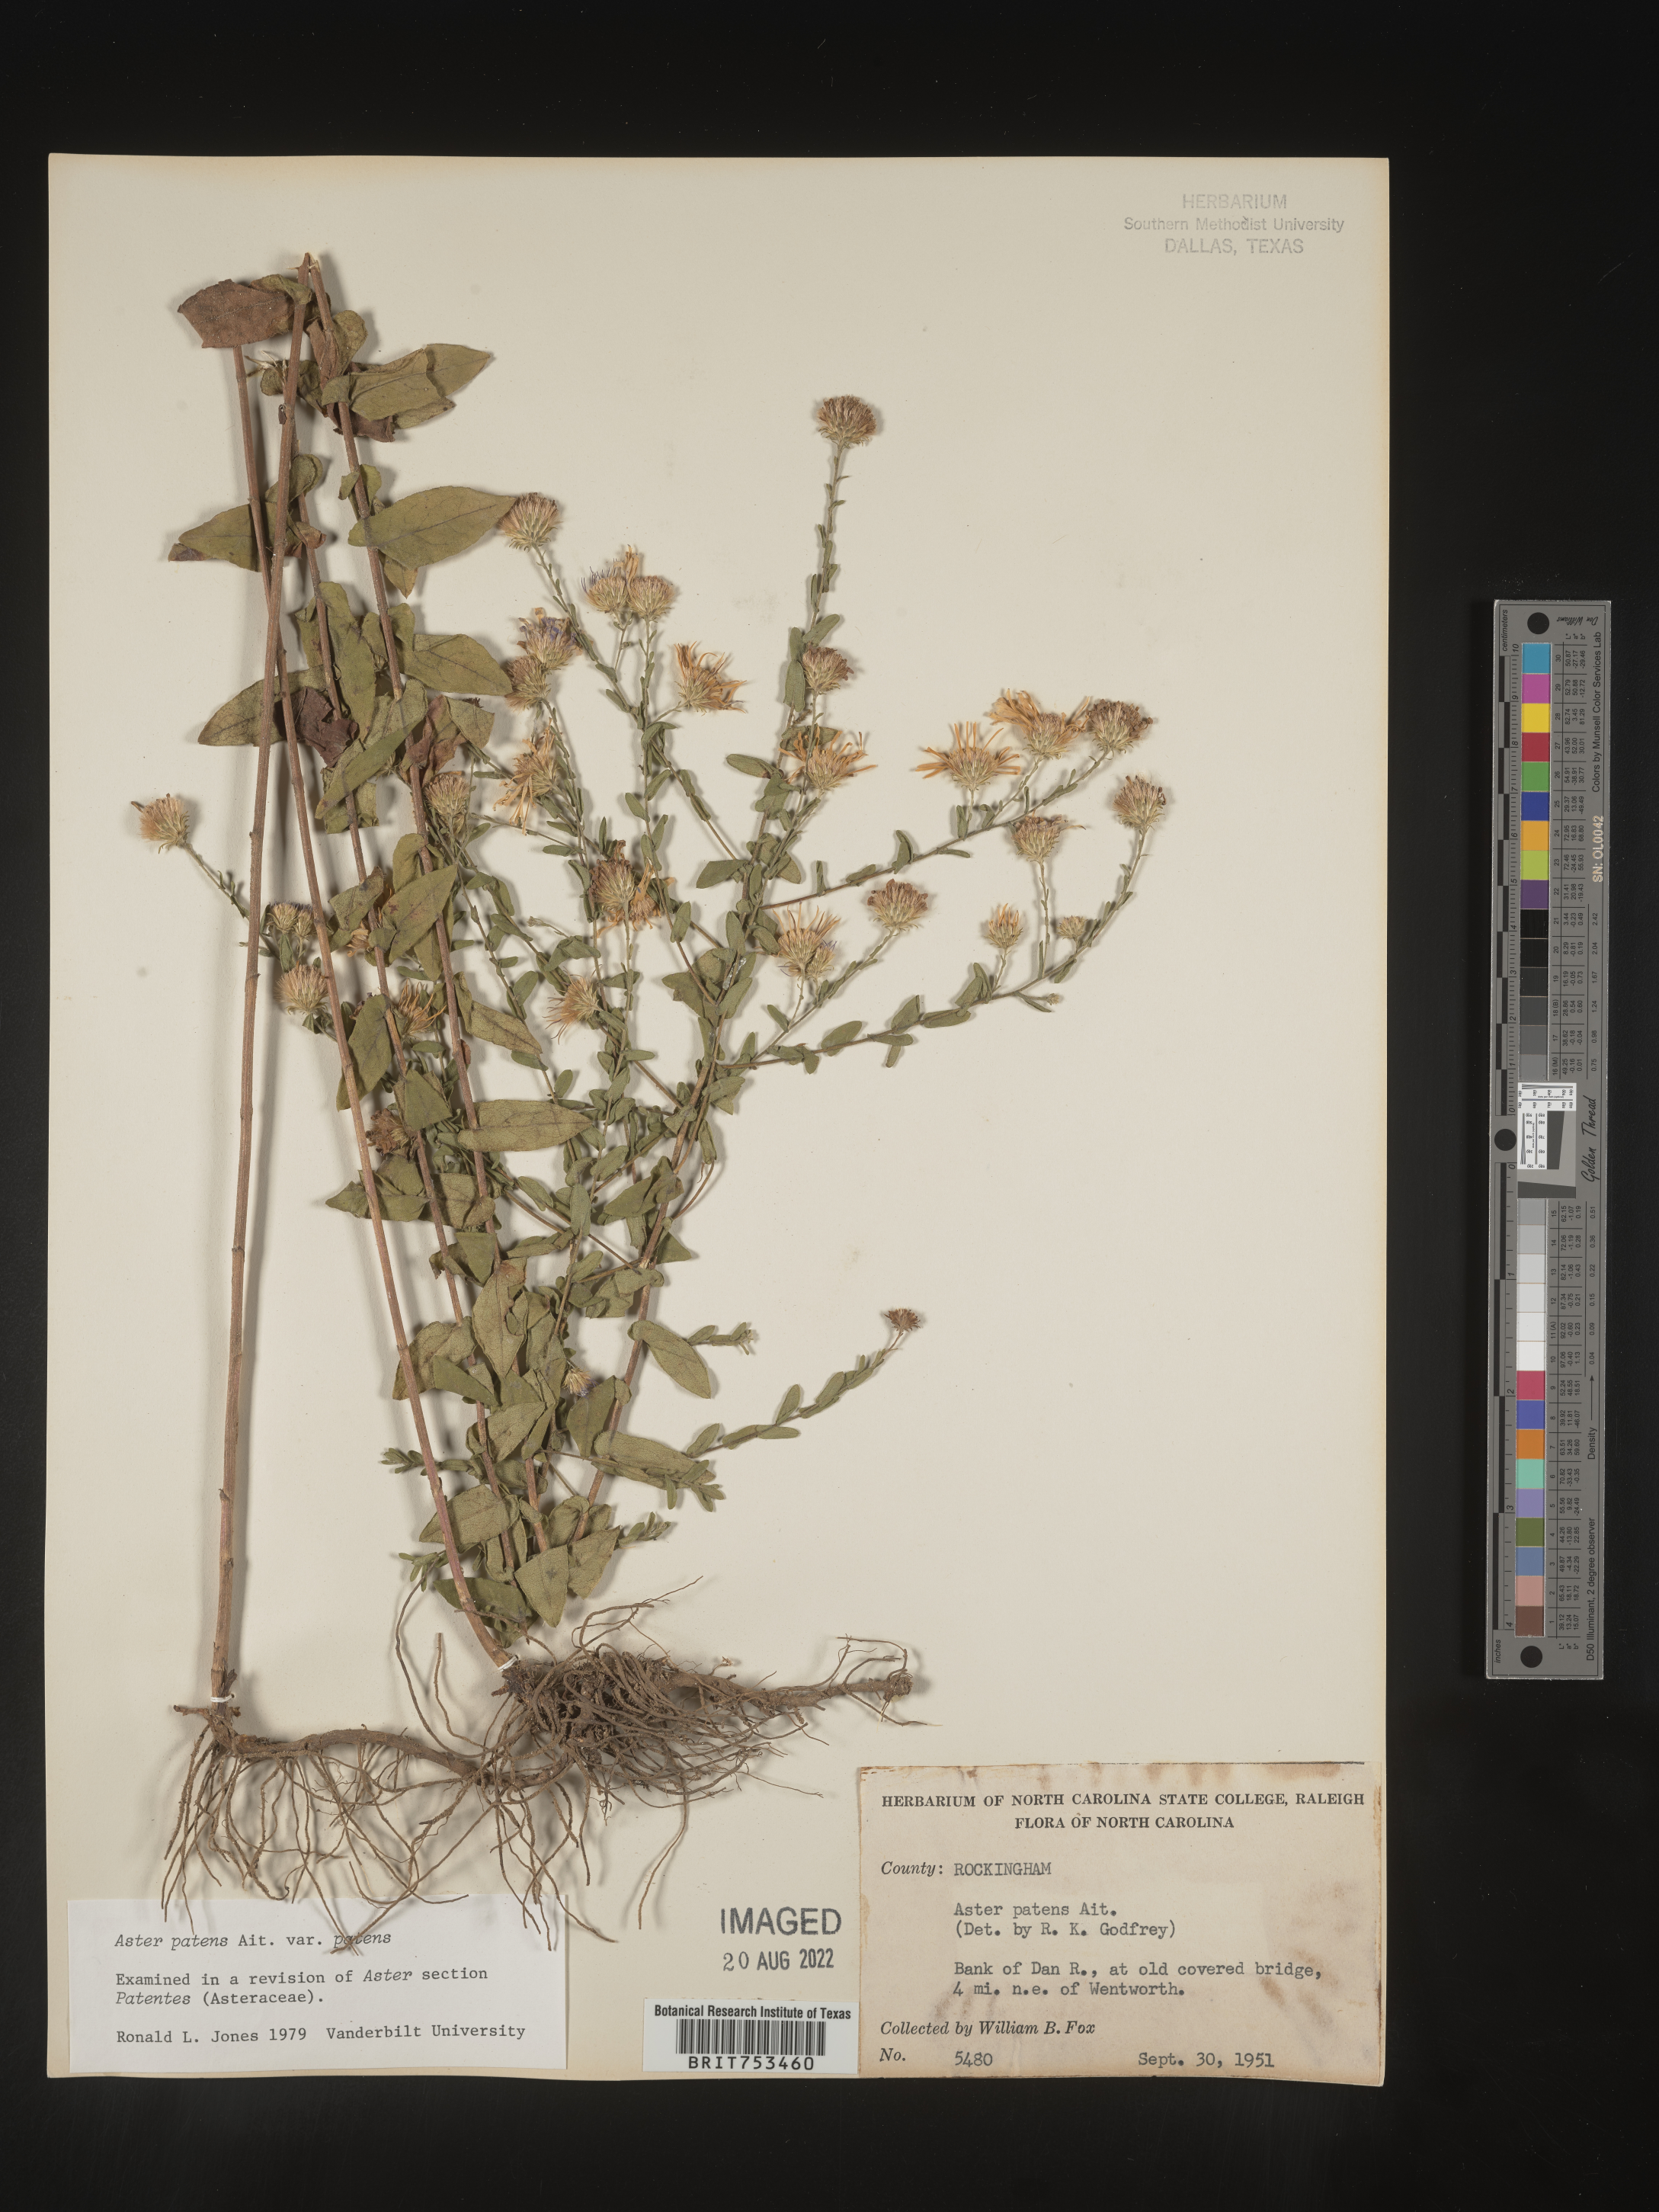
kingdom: Plantae
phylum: Tracheophyta
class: Magnoliopsida
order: Asterales
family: Asteraceae
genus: Symphyotrichum
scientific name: Symphyotrichum patens
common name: Late purple aster
